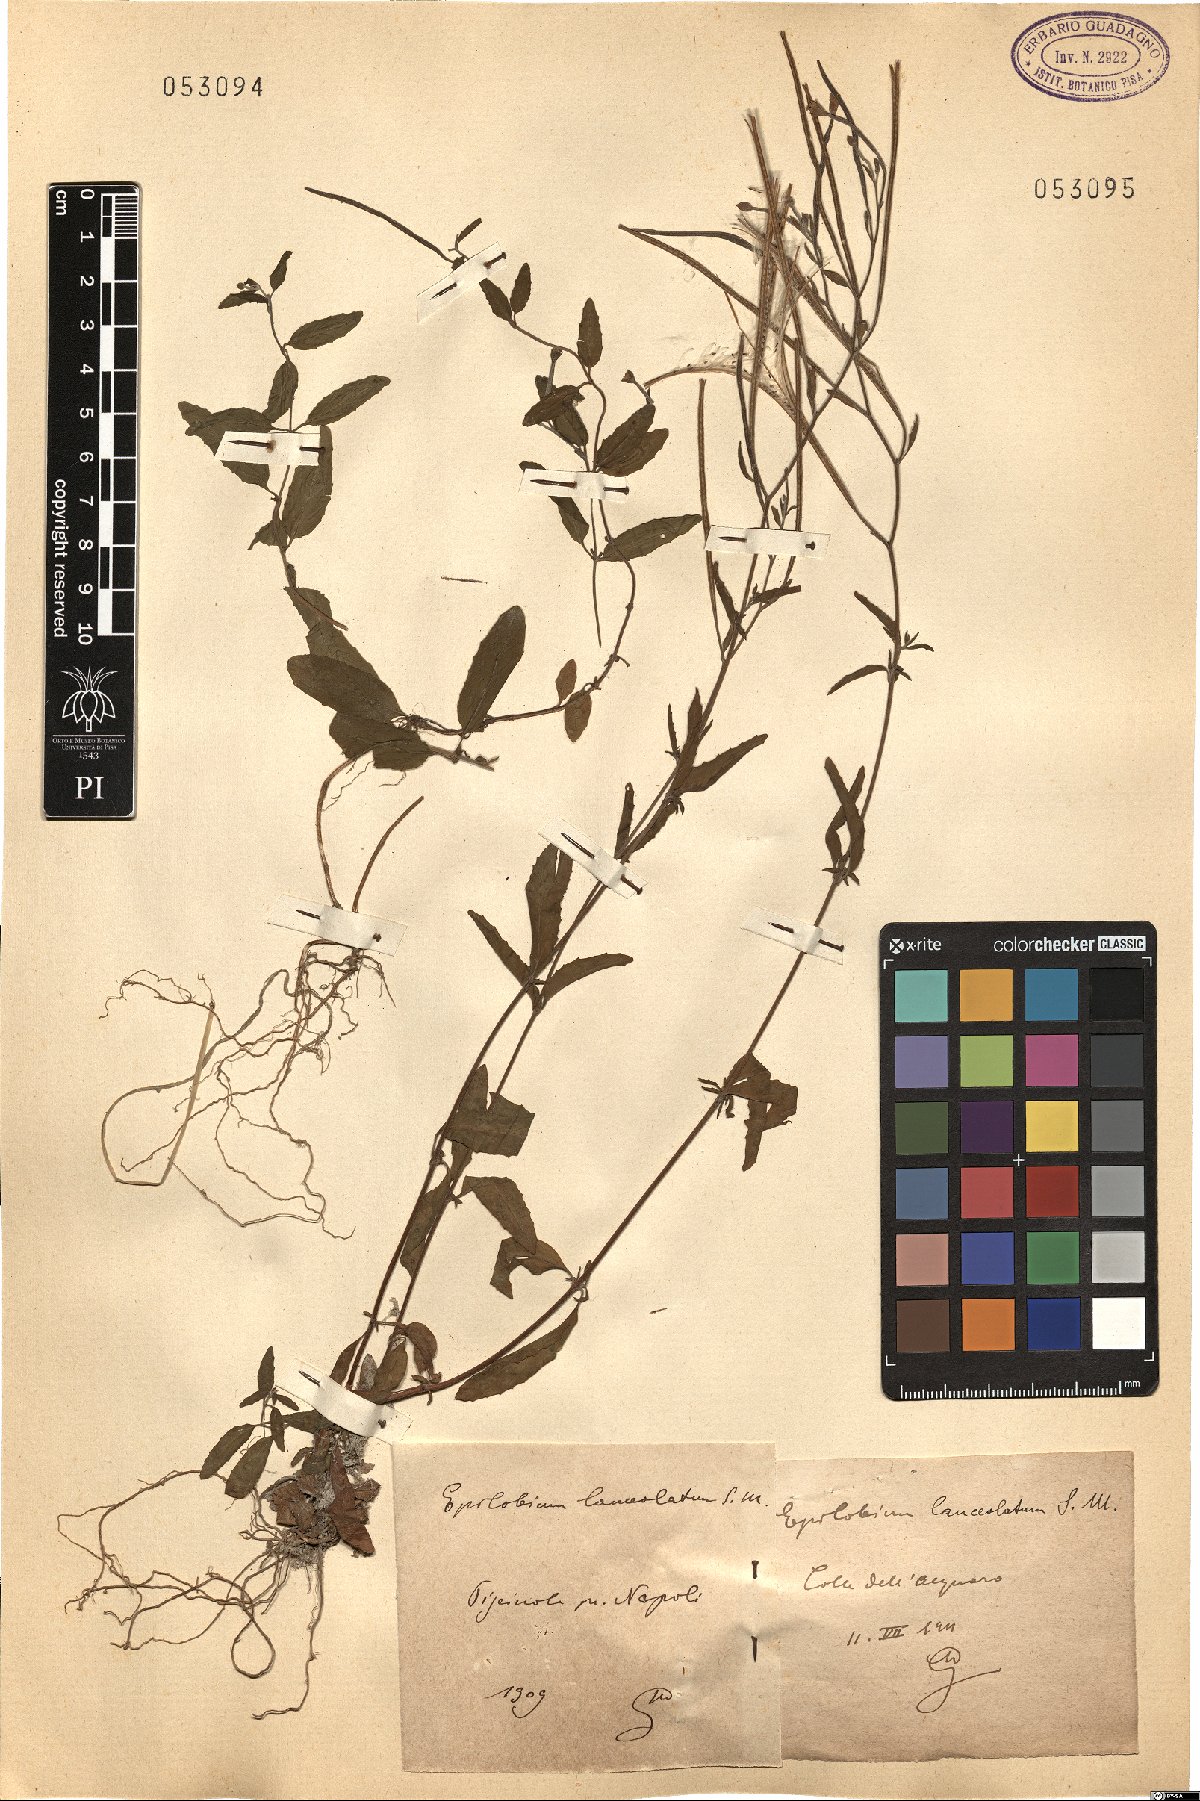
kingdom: Plantae
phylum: Tracheophyta
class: Magnoliopsida
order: Myrtales
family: Onagraceae
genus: Epilobium
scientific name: Epilobium lanceolatum
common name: Spear-leaved willowherb
